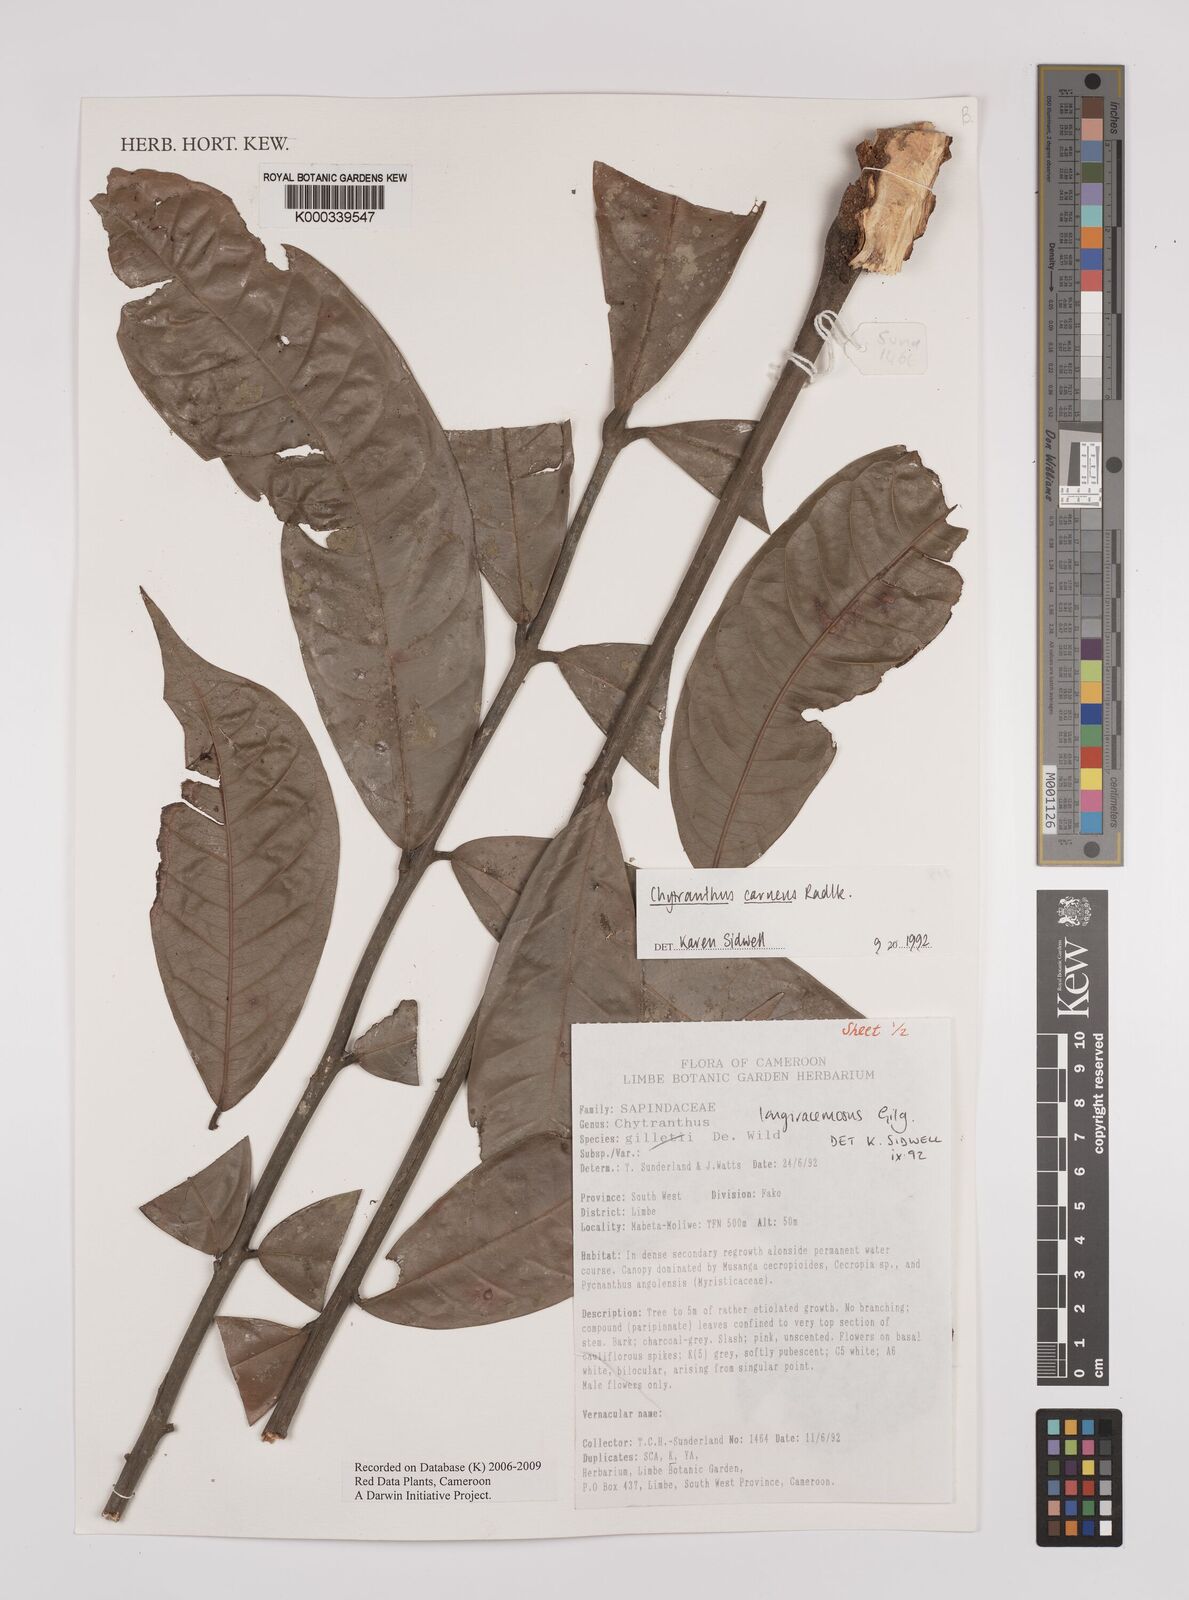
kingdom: Plantae
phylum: Tracheophyta
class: Magnoliopsida
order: Sapindales
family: Sapindaceae
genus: Chytranthus
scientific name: Chytranthus carneus
